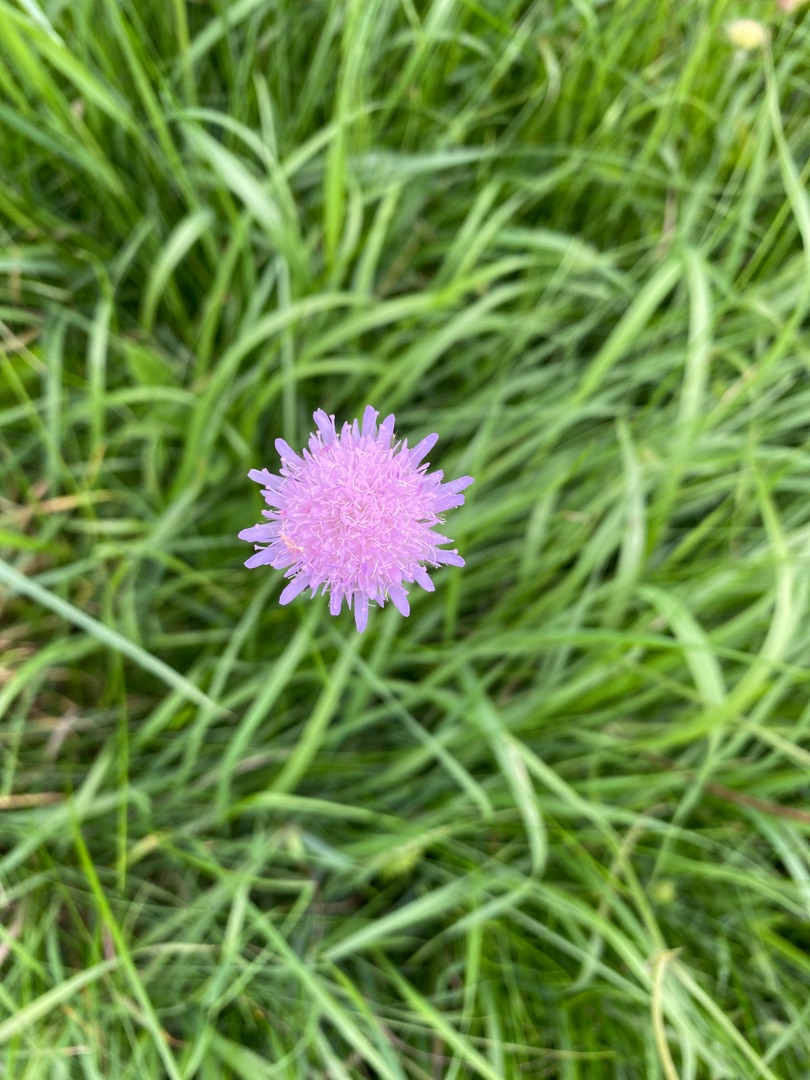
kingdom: Plantae
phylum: Tracheophyta
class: Magnoliopsida
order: Dipsacales
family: Caprifoliaceae
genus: Knautia
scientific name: Knautia arvensis
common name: Blåhat
